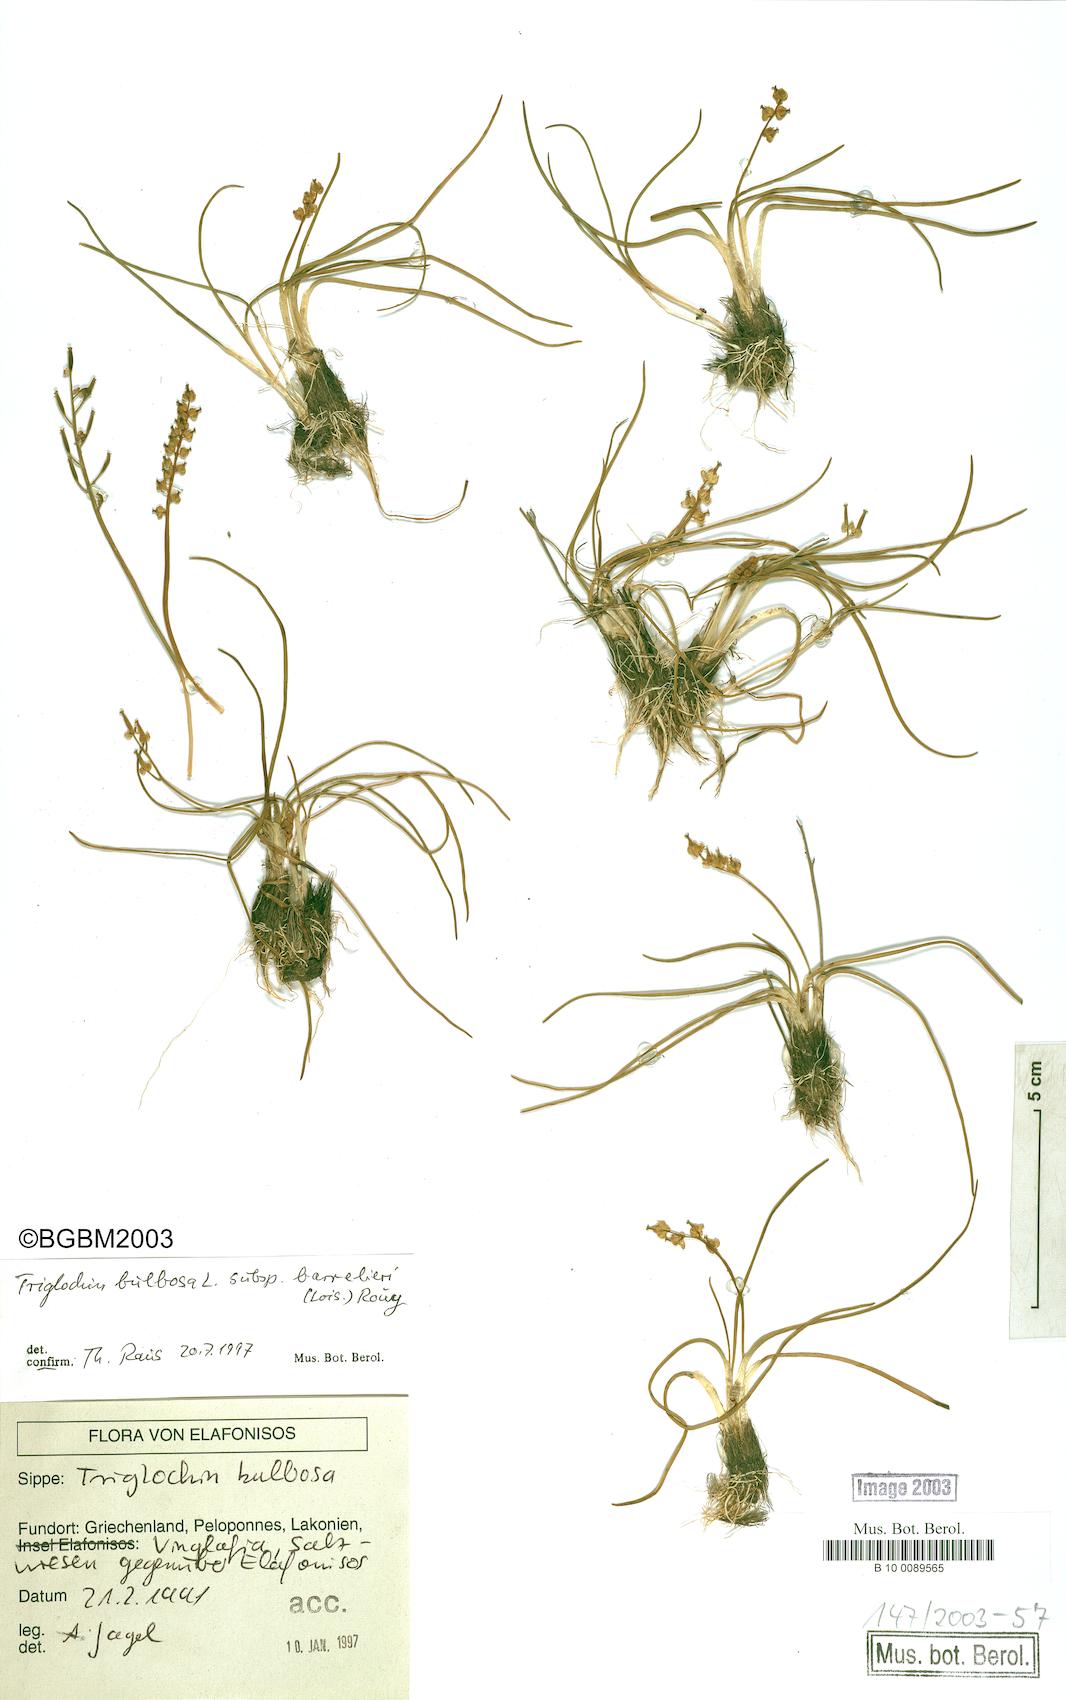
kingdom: Plantae
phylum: Tracheophyta
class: Liliopsida
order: Alismatales
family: Juncaginaceae
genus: Triglochin
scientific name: Triglochin barrelieri
